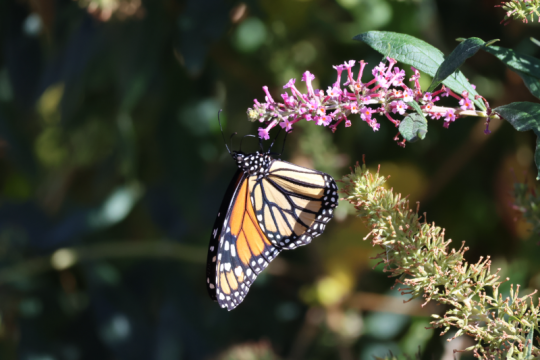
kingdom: Animalia
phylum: Arthropoda
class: Insecta
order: Lepidoptera
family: Nymphalidae
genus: Danaus
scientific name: Danaus plexippus
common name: Monarch
